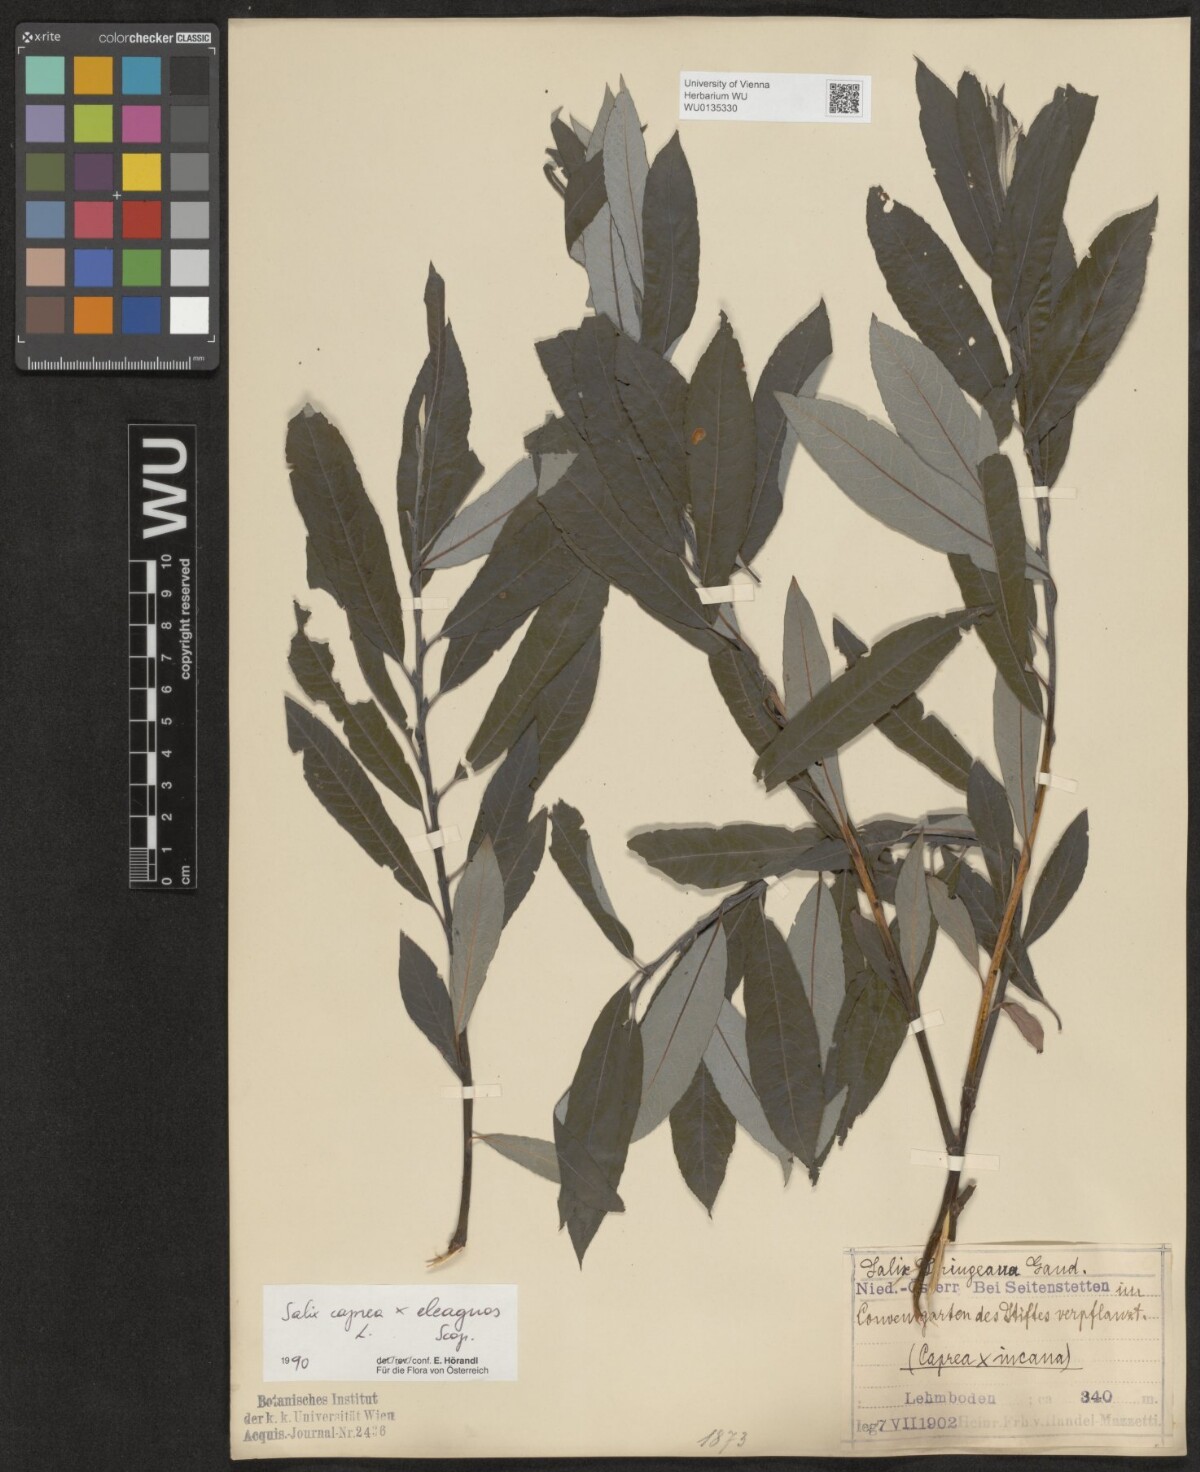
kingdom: Plantae
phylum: Tracheophyta
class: Magnoliopsida
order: Malpighiales
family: Salicaceae
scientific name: Salicaceae
